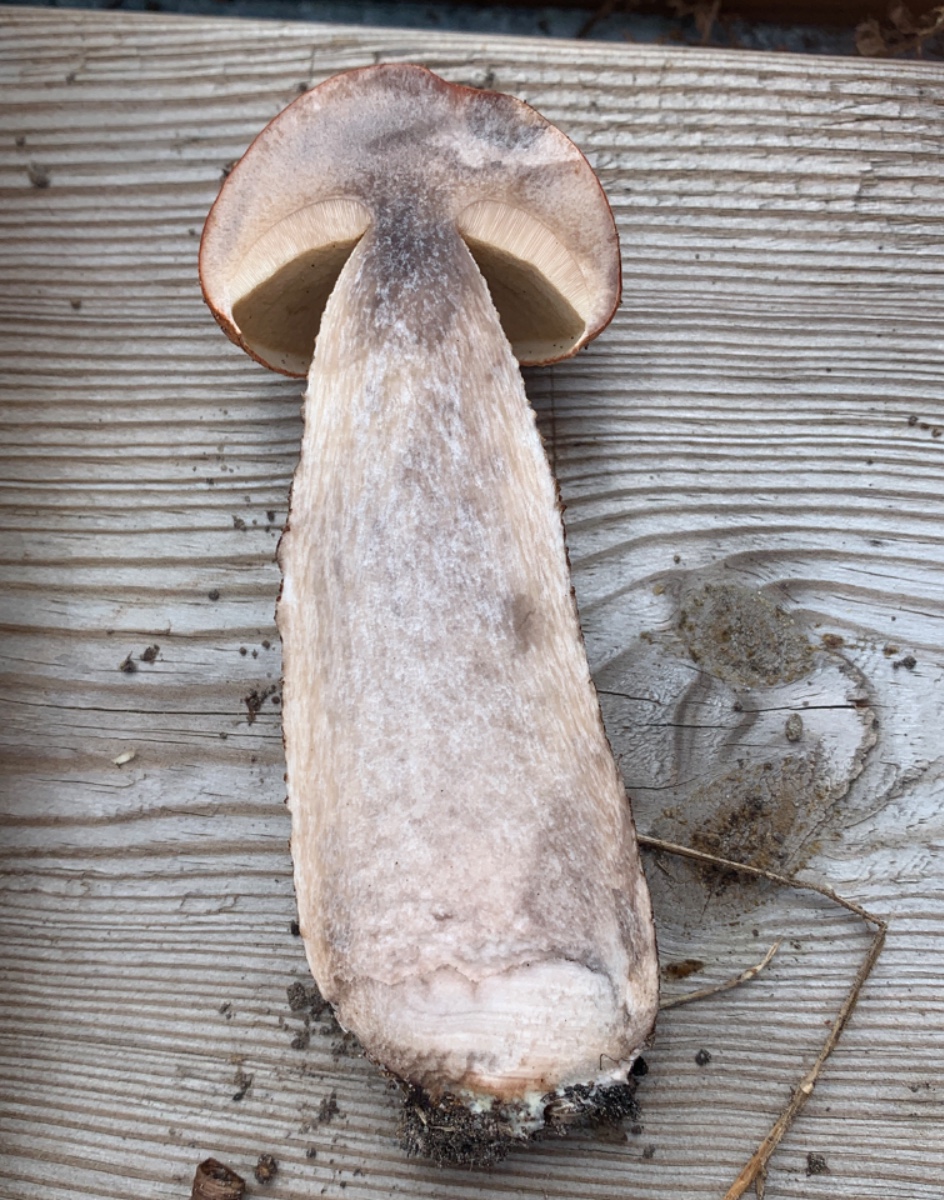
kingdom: Fungi
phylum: Basidiomycota
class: Agaricomycetes
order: Boletales
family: Boletaceae
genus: Leccinum
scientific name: Leccinum aurantiacum
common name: rustrød skælrørhat
